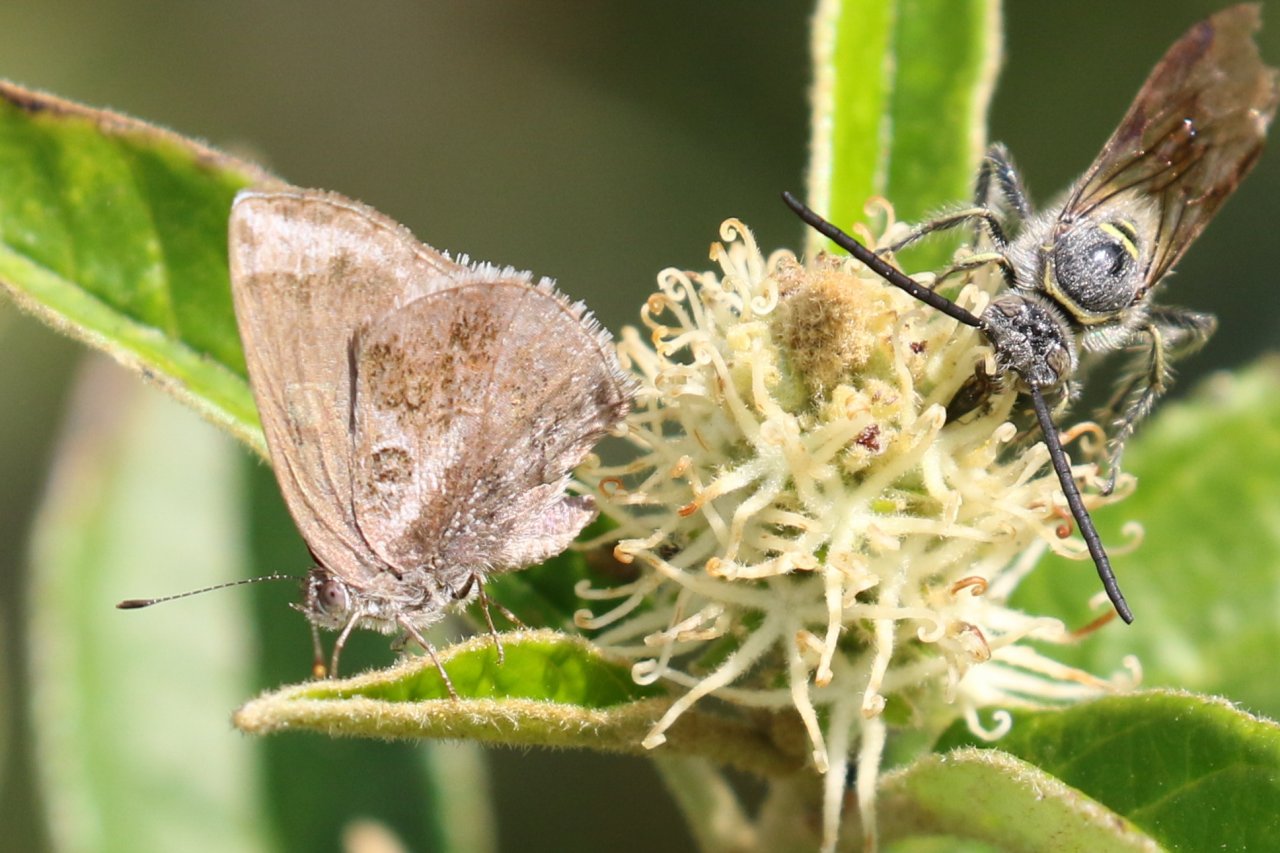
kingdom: Animalia
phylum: Arthropoda
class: Insecta
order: Lepidoptera
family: Lycaenidae
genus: Strymon
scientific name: Strymon bazochii
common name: Lantana Scrub-Hairstreak
